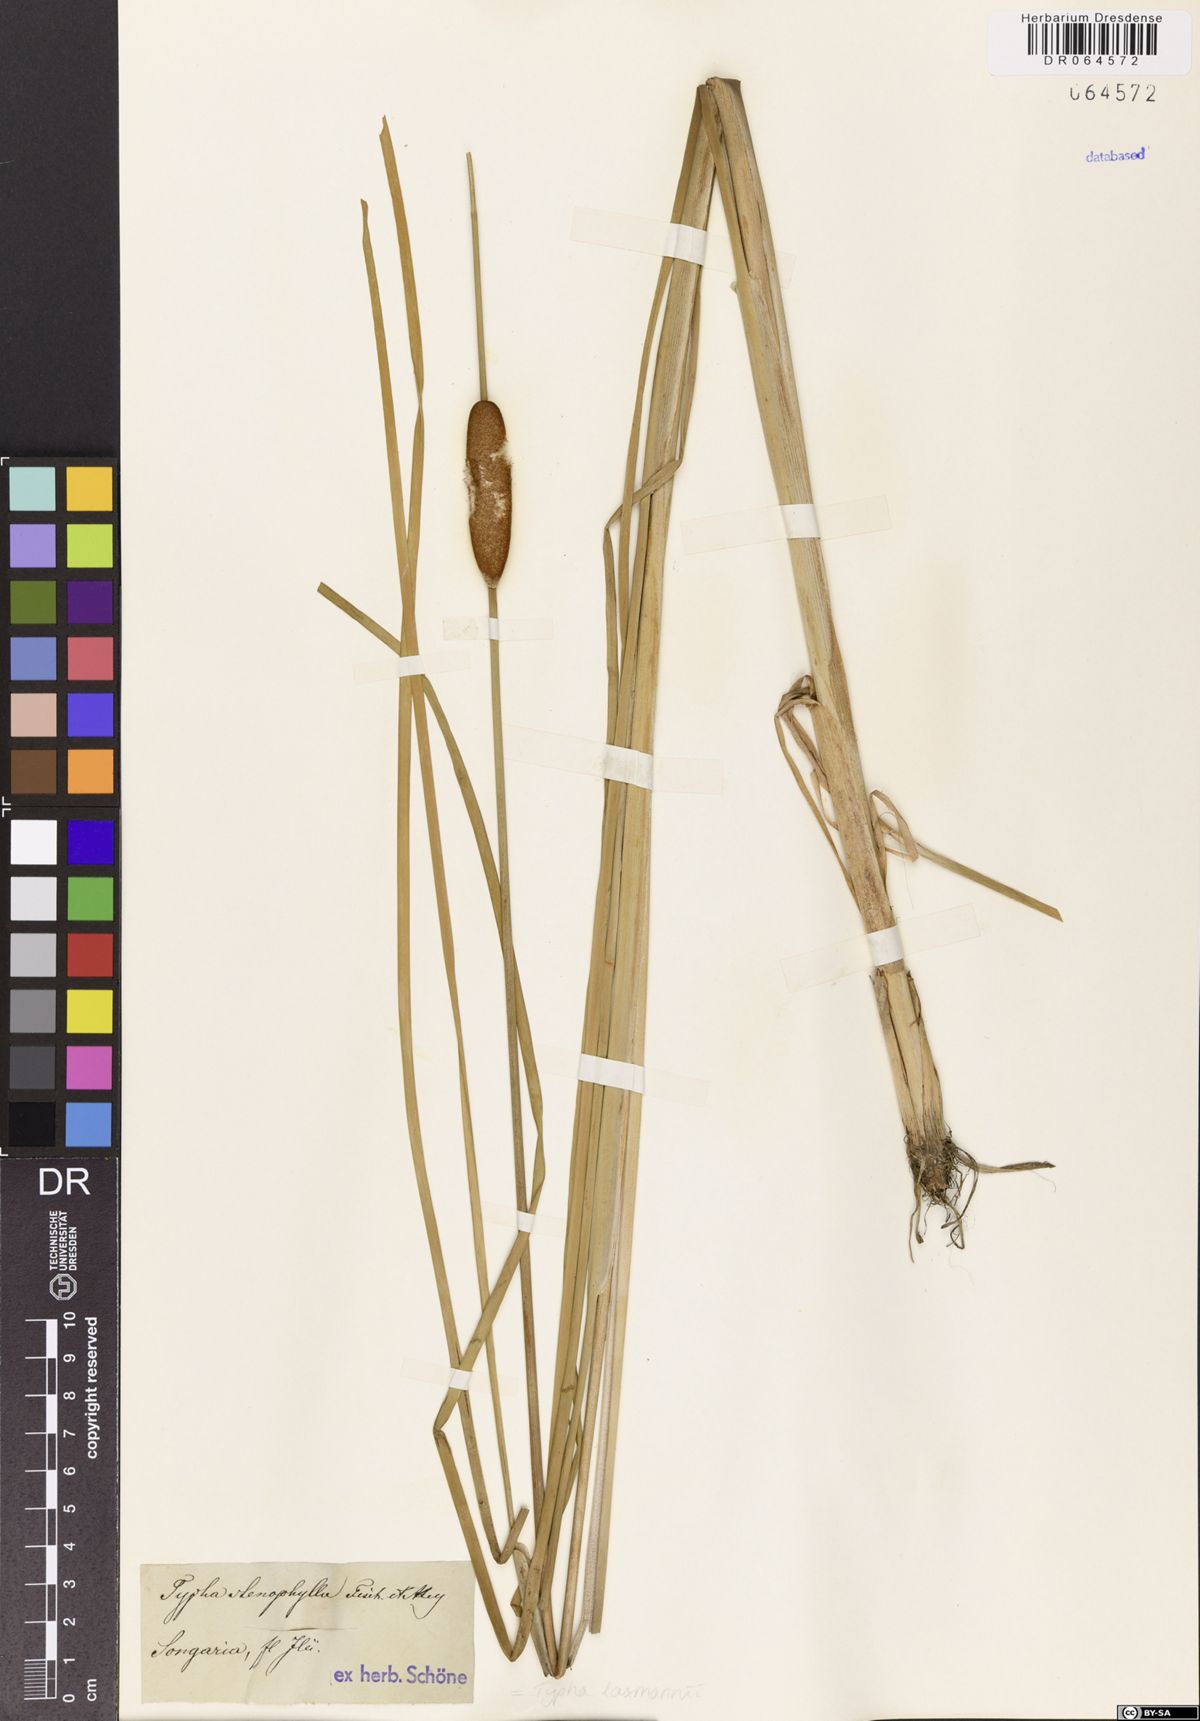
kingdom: Plantae
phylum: Tracheophyta
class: Liliopsida
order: Poales
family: Typhaceae
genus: Typha
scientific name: Typha laxmannii
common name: Laxman’s bulrush
